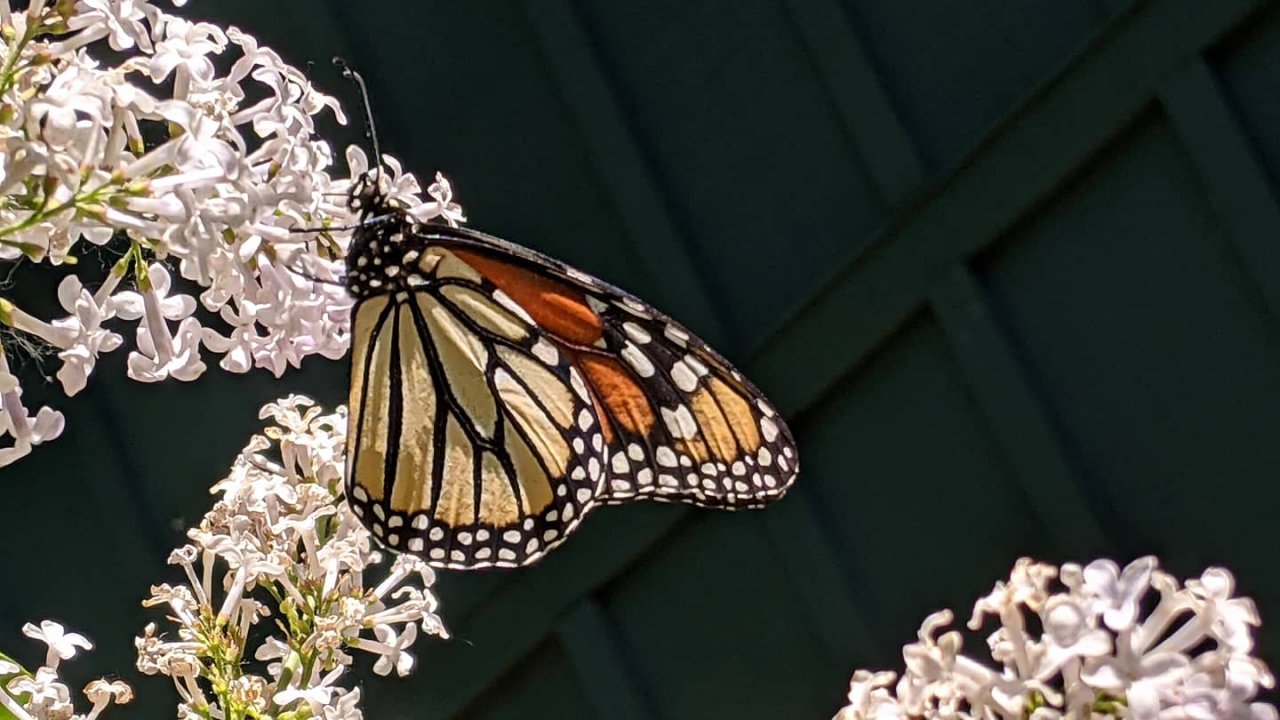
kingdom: Animalia
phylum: Arthropoda
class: Insecta
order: Lepidoptera
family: Nymphalidae
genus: Danaus
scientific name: Danaus plexippus
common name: Monarch
